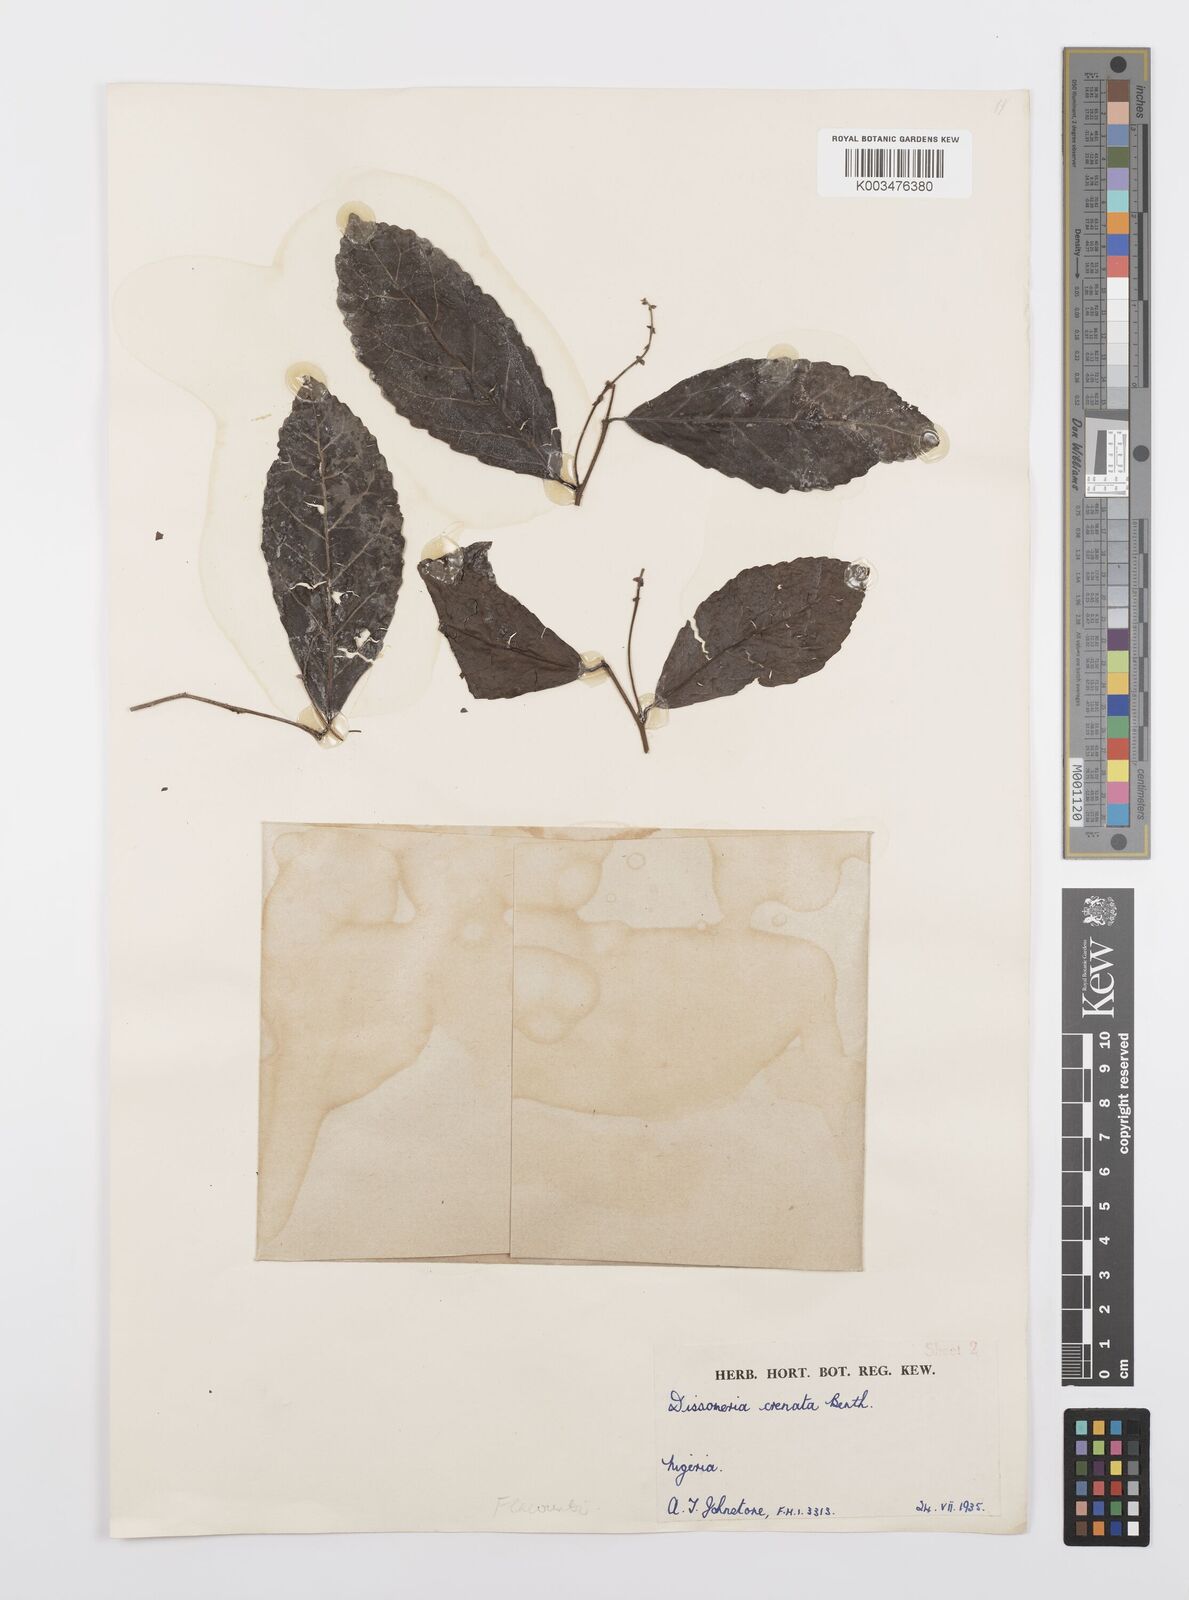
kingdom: Plantae
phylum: Tracheophyta
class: Magnoliopsida
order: Malpighiales
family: Salicaceae
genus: Dissomeria
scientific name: Dissomeria crenata
